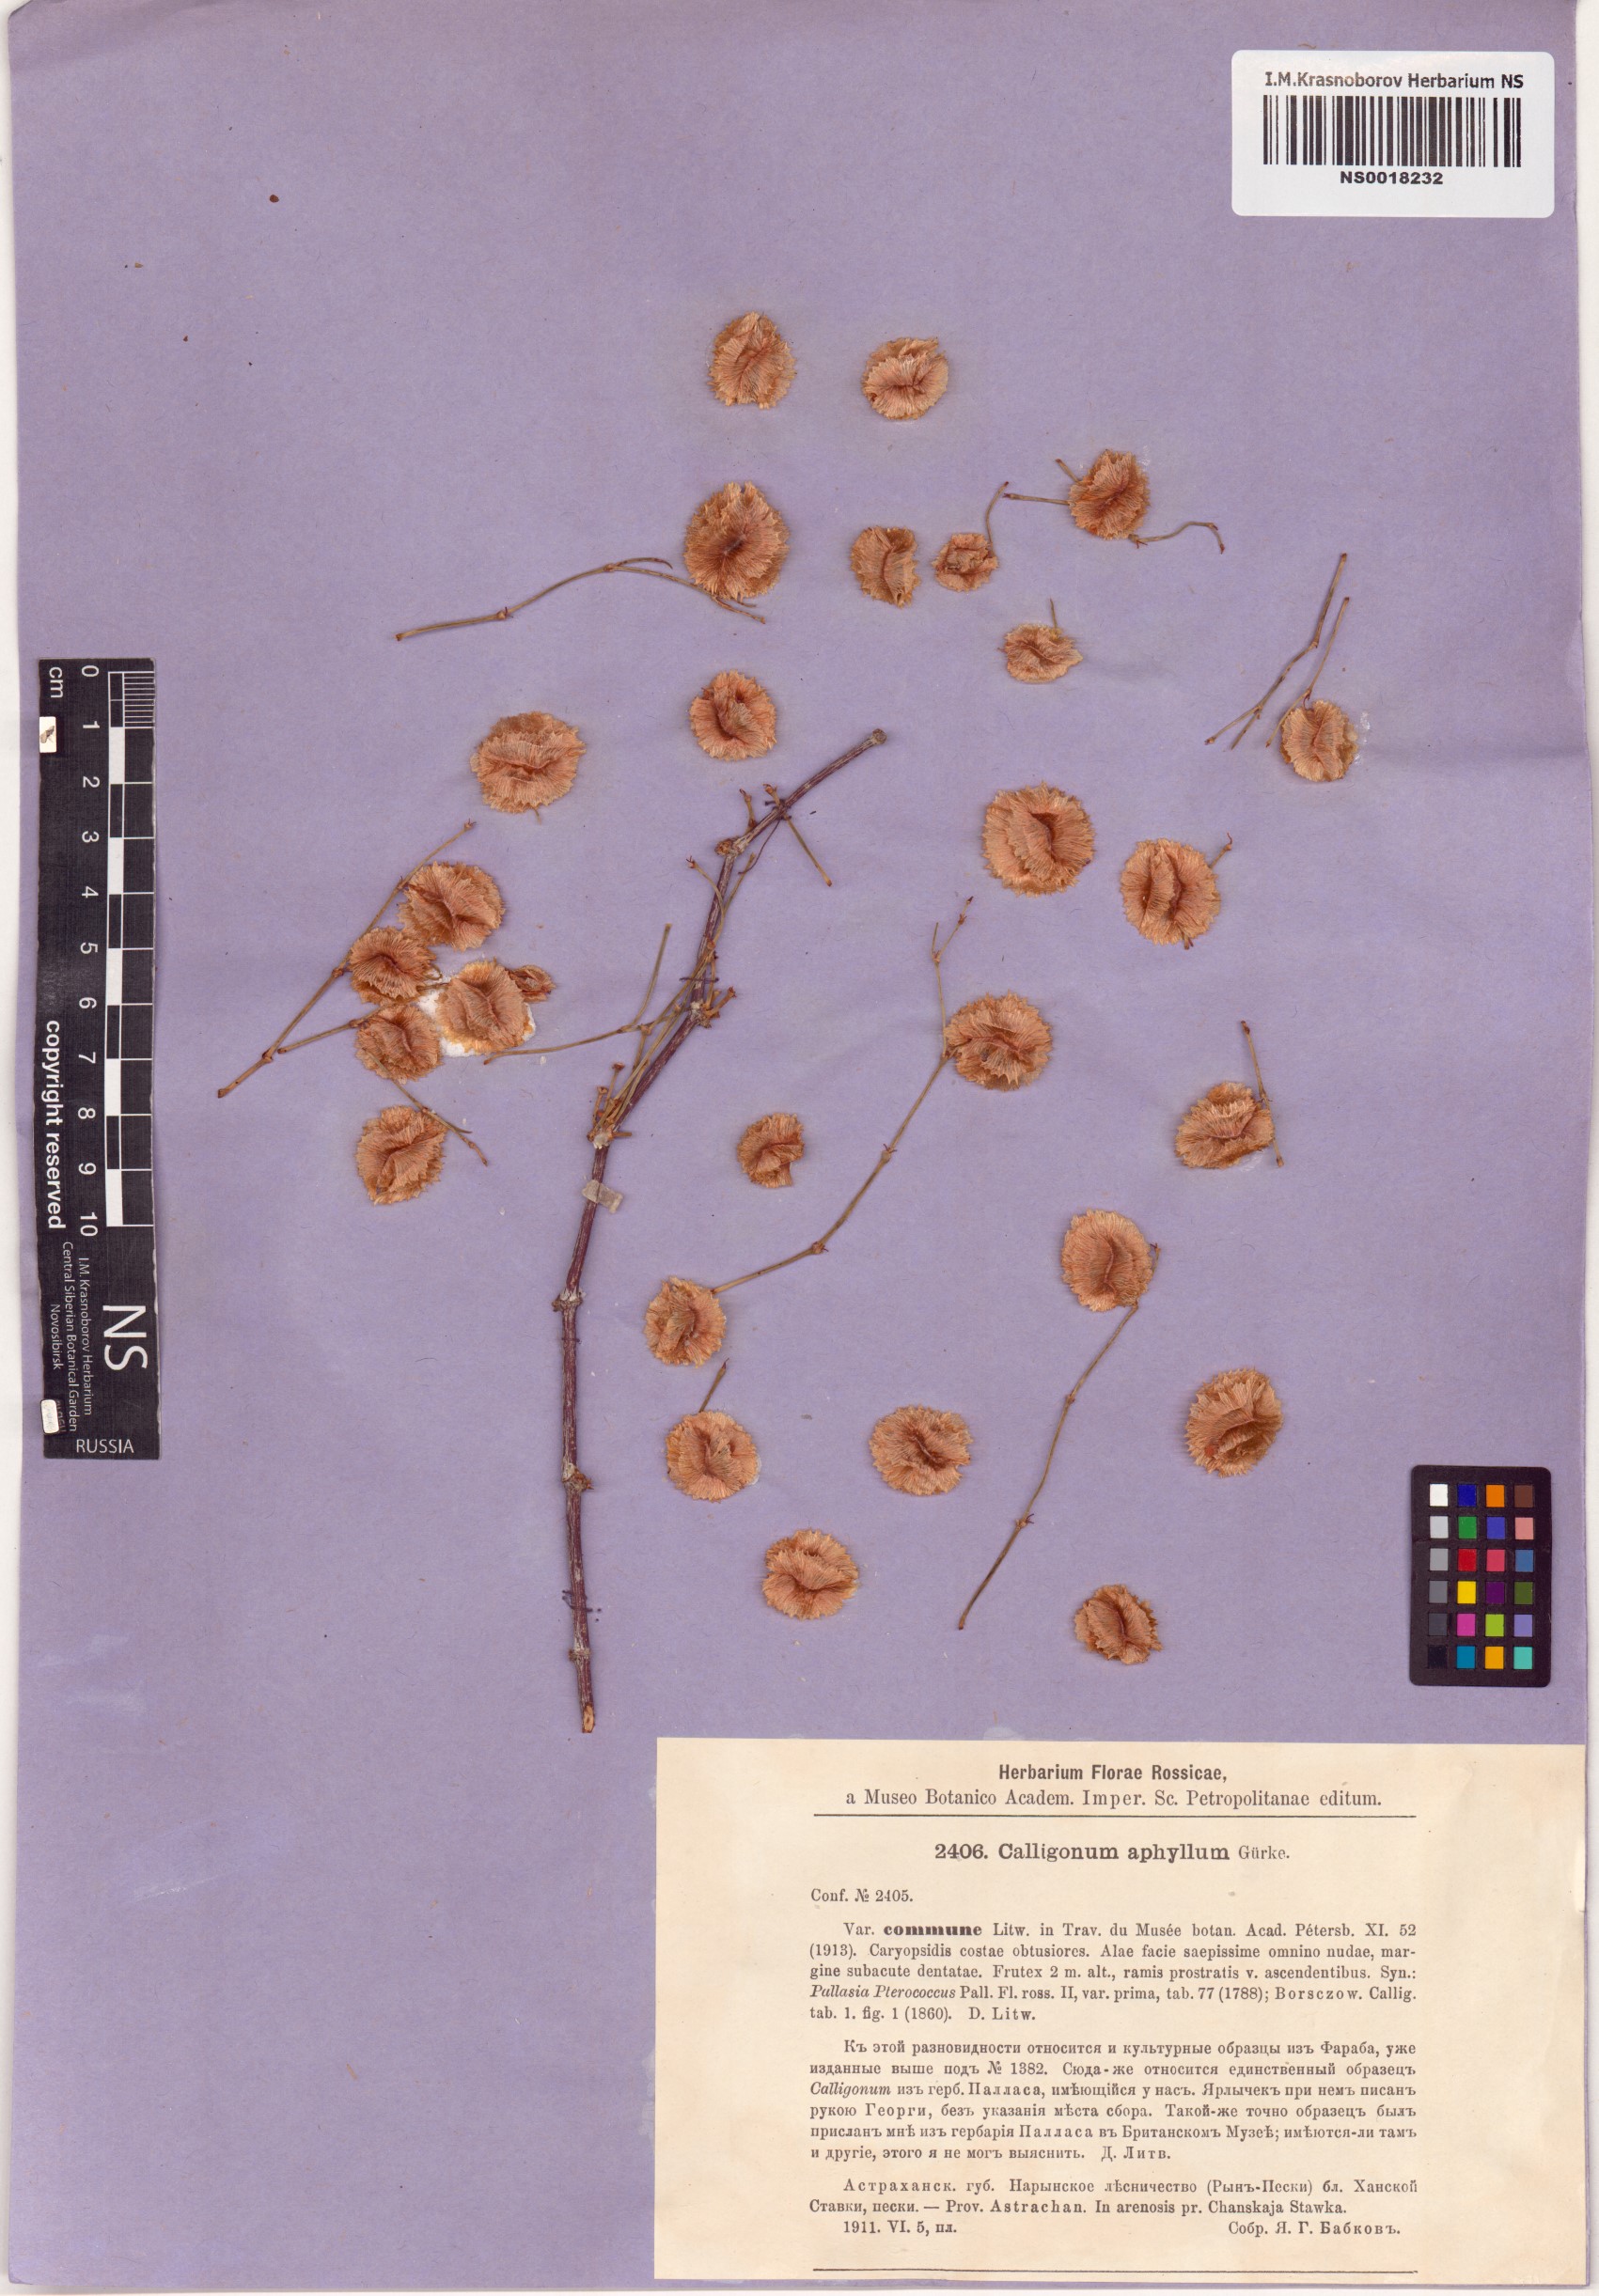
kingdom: Plantae
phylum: Tracheophyta
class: Magnoliopsida
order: Caryophyllales
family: Polygonaceae
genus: Calligonum
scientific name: Calligonum aphyllum
